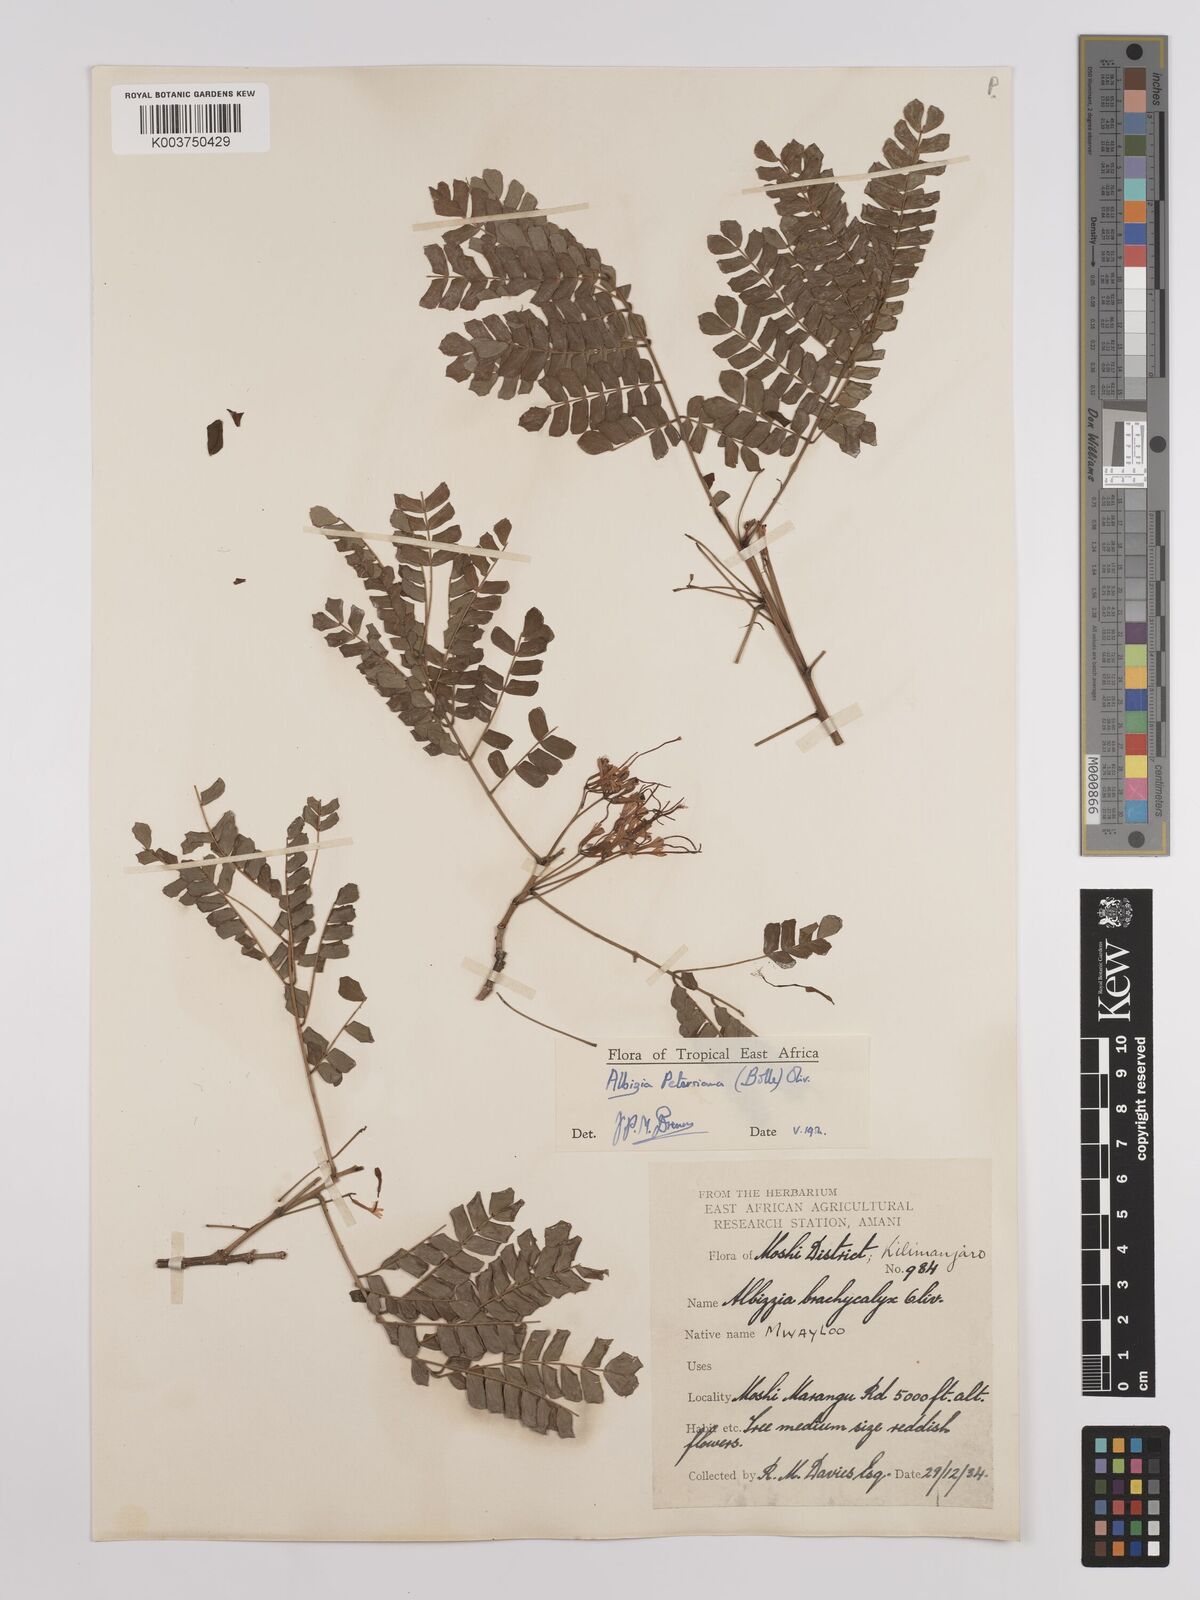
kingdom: Plantae
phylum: Tracheophyta
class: Magnoliopsida
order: Fabales
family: Fabaceae
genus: Albizia
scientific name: Albizia petersiana
